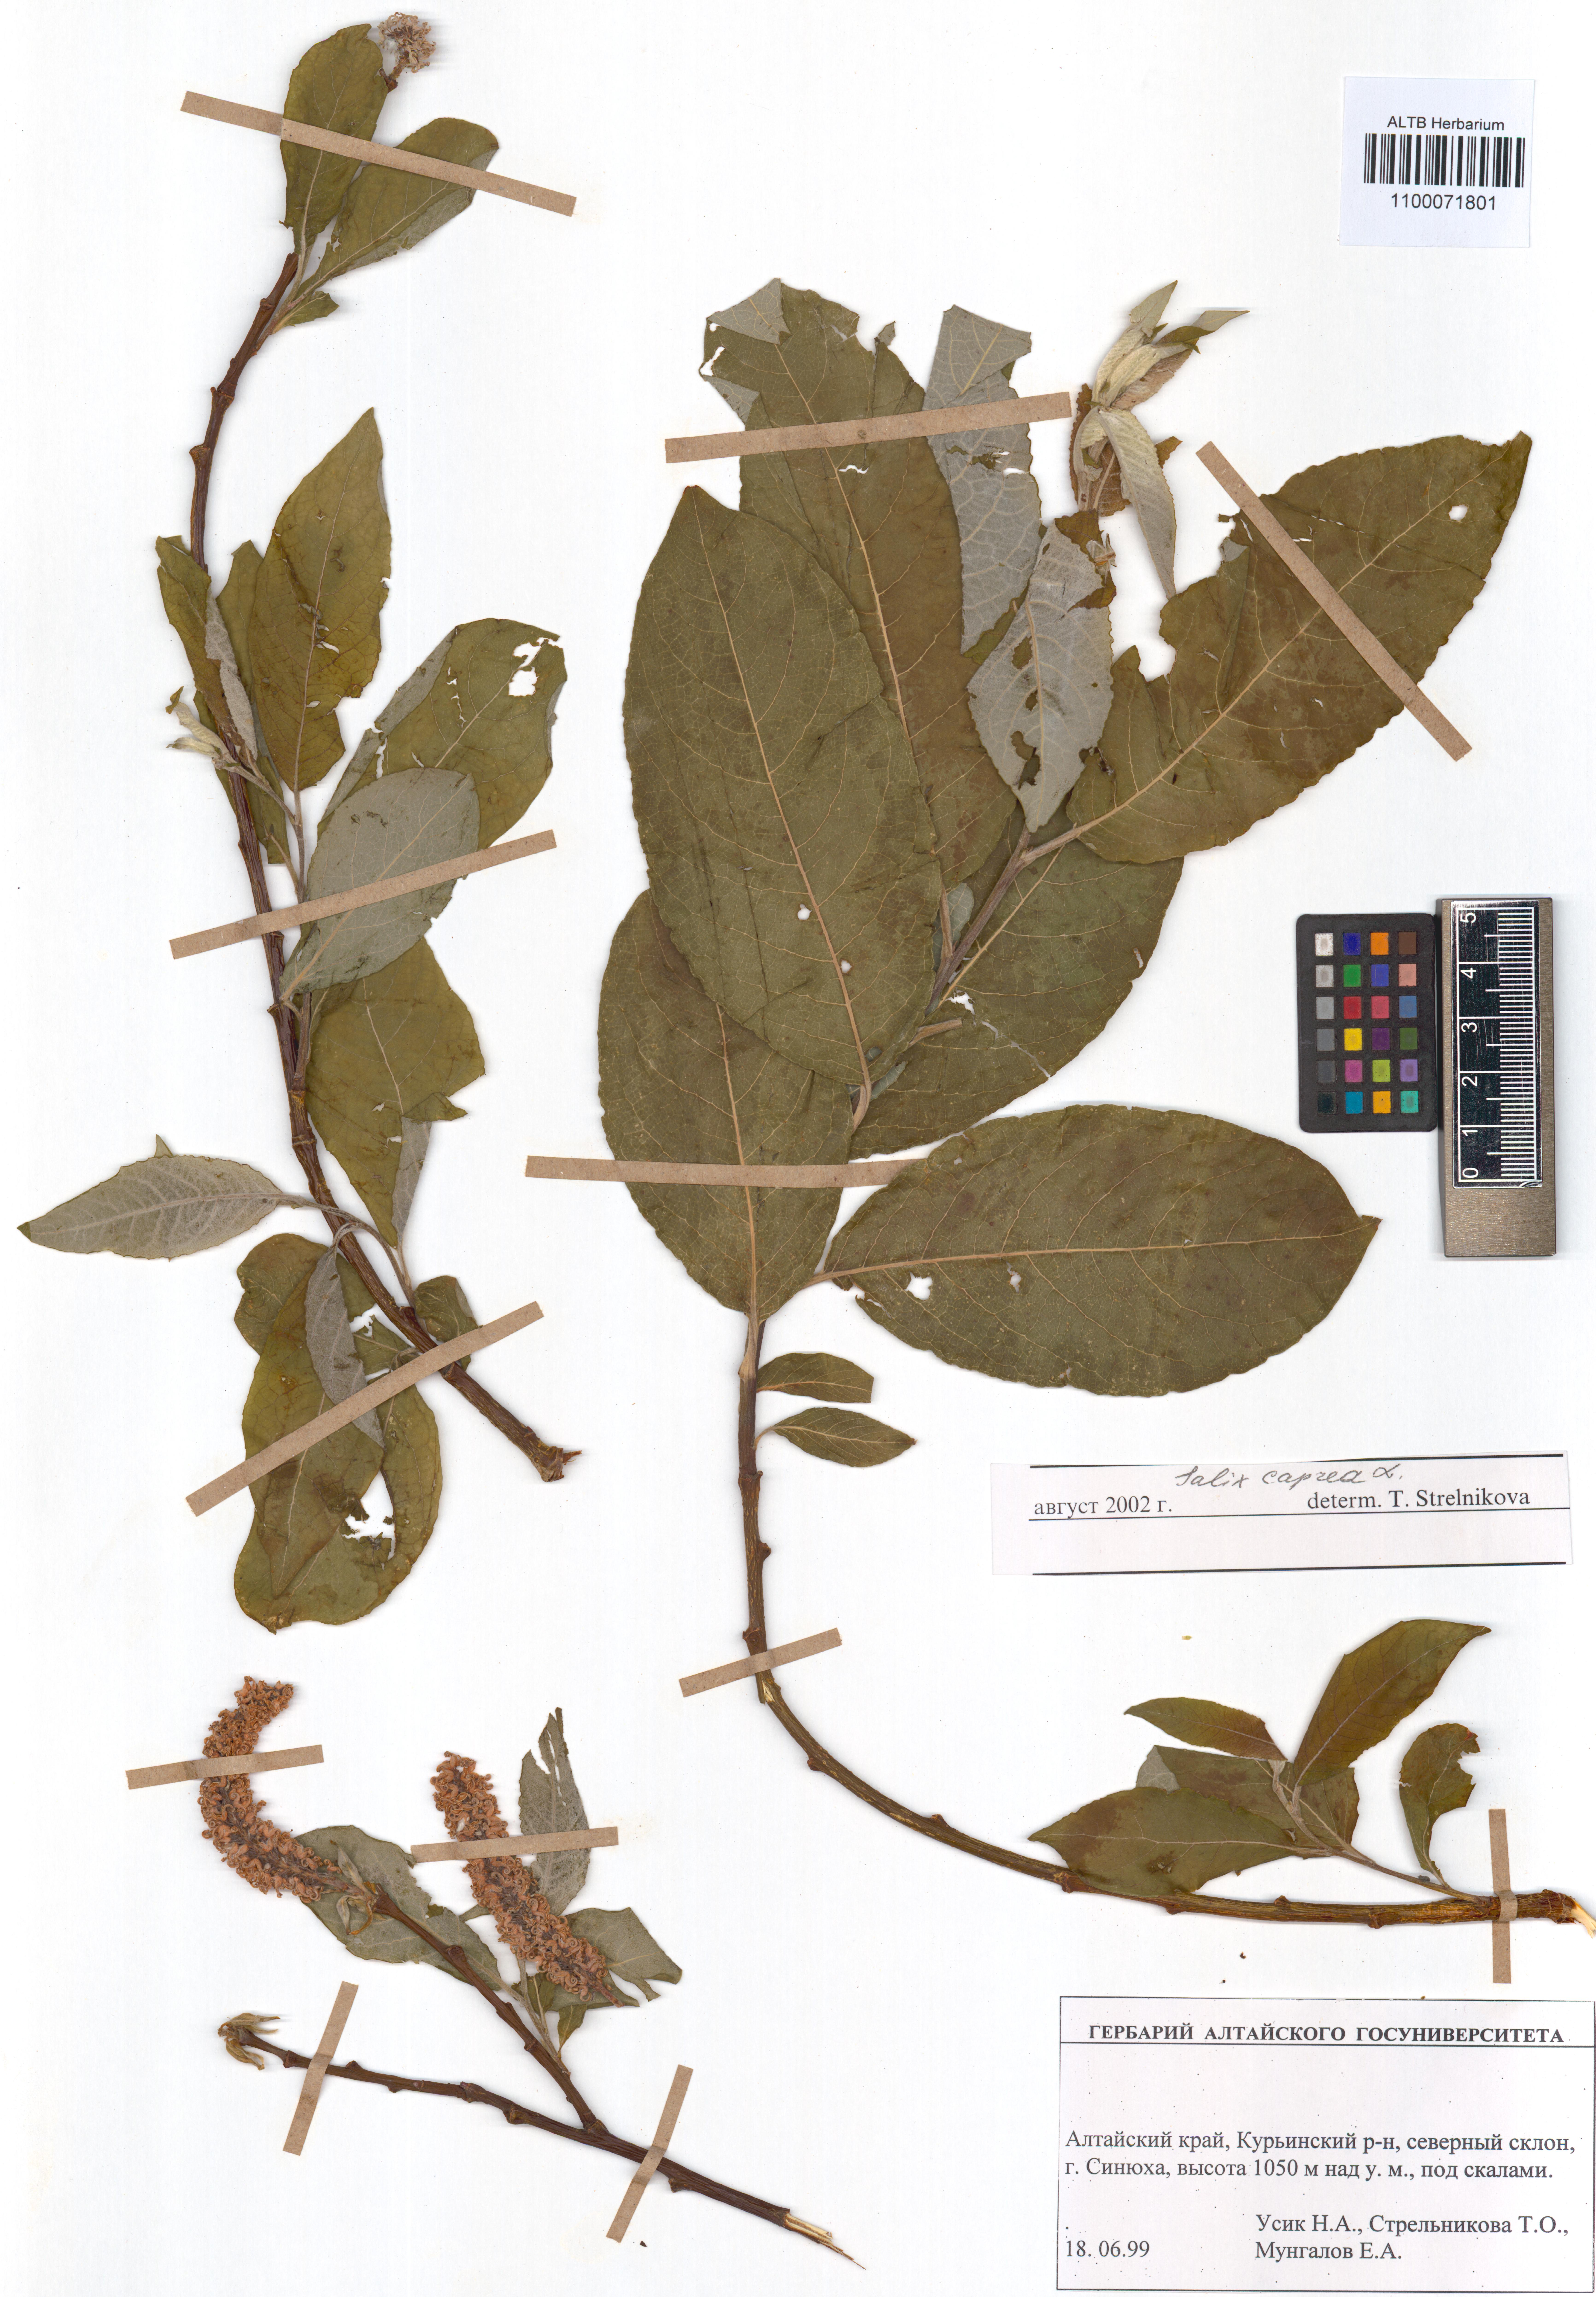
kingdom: Plantae
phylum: Tracheophyta
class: Magnoliopsida
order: Malpighiales
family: Salicaceae
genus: Salix
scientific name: Salix caprea
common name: Goat willow
